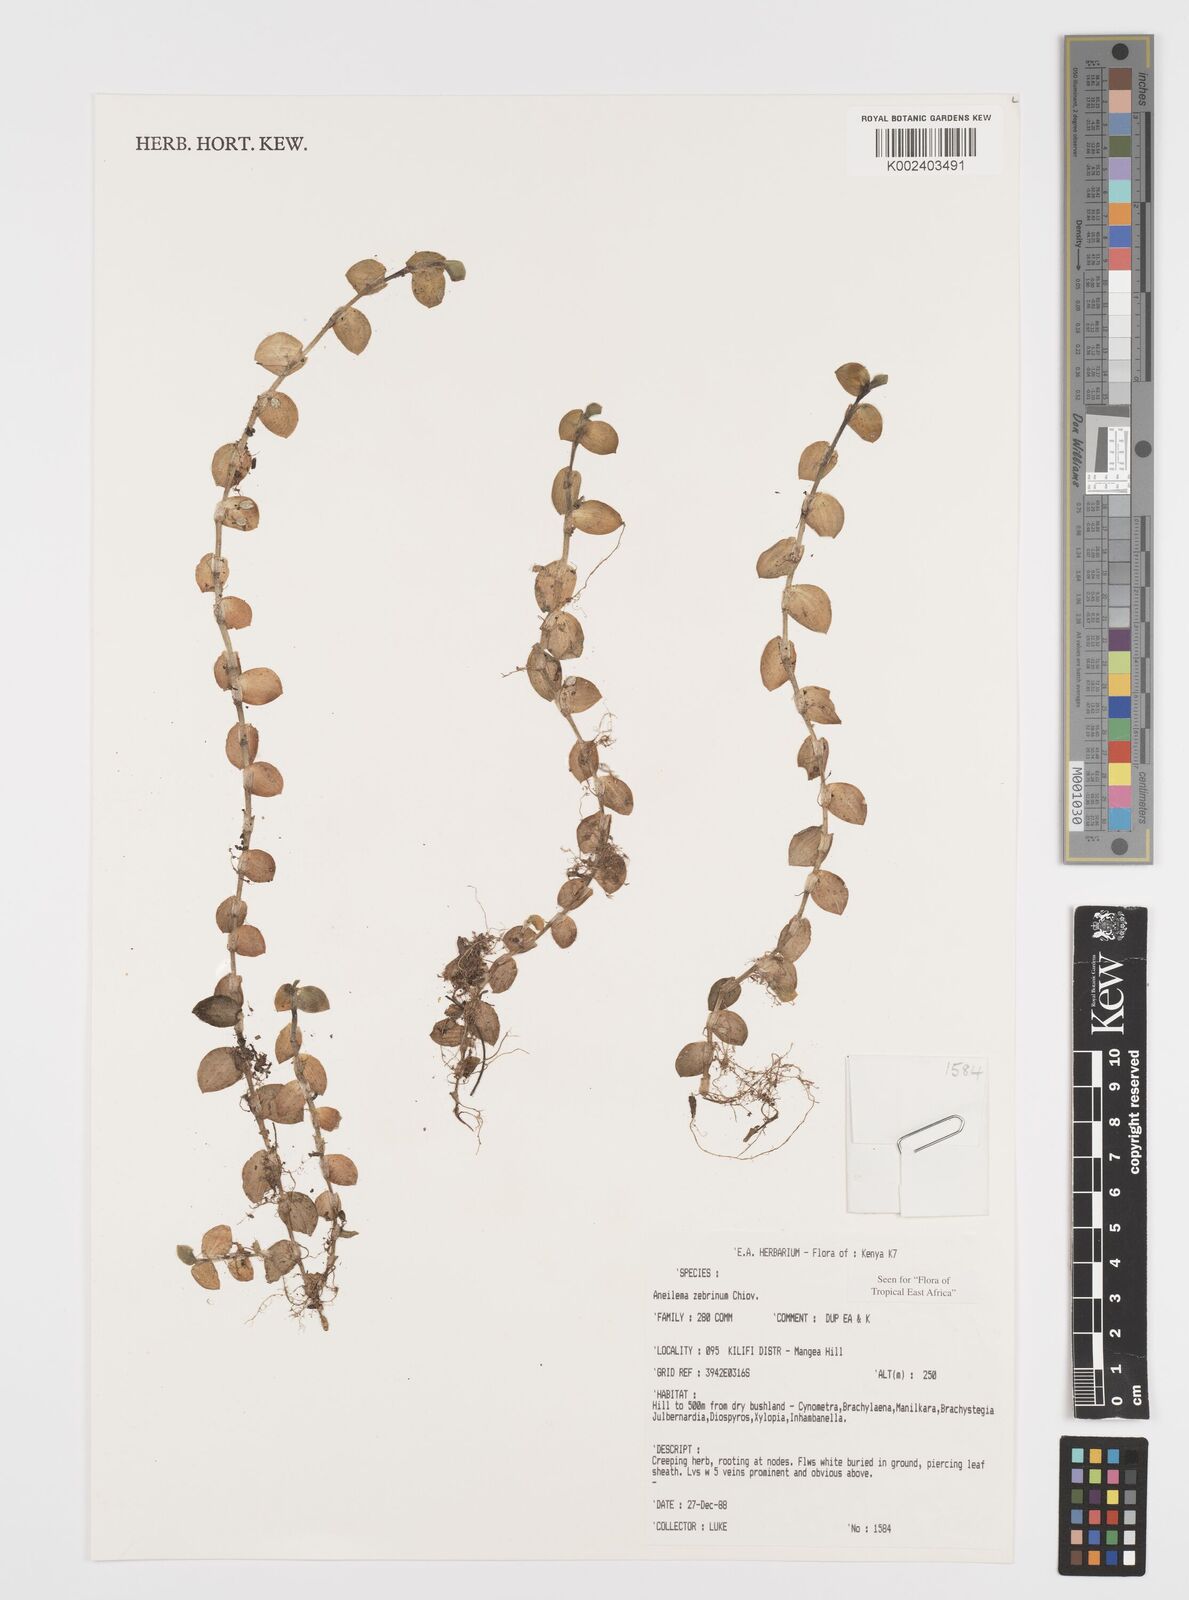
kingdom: Plantae
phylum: Tracheophyta
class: Liliopsida
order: Commelinales
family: Commelinaceae
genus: Aneilema
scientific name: Aneilema zebrinum
